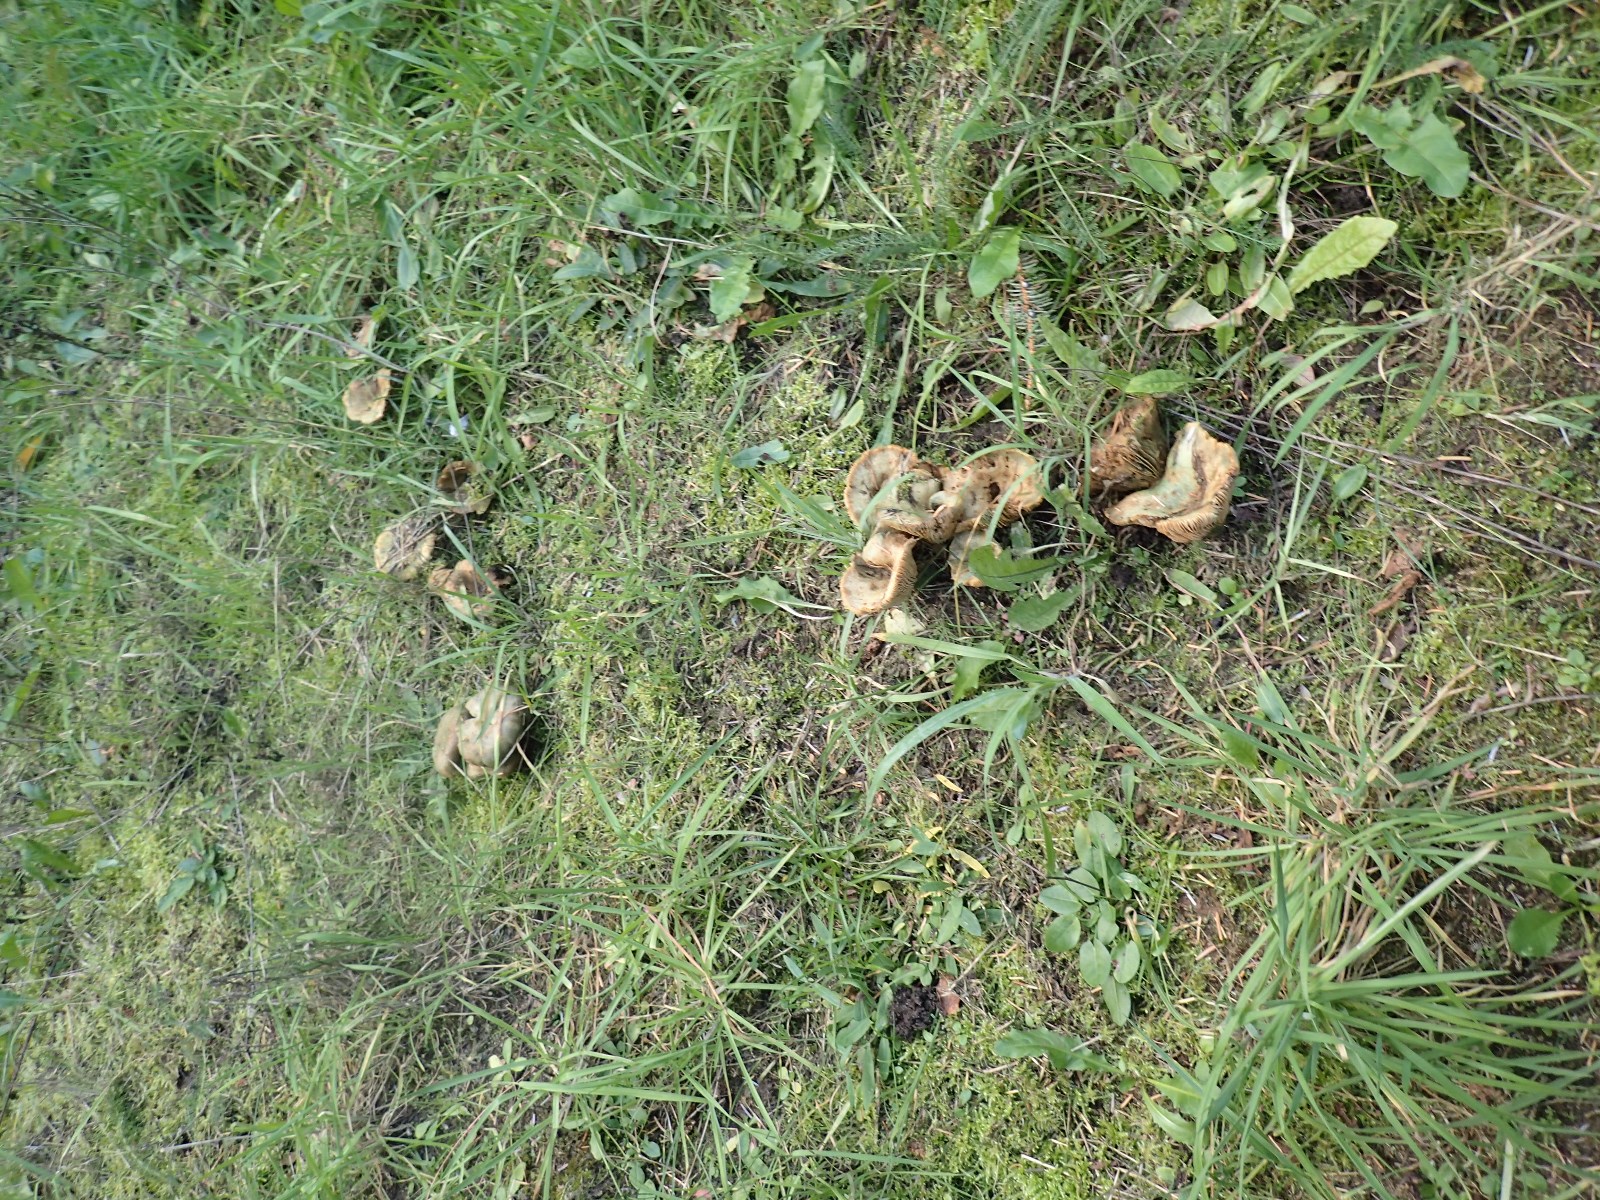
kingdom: Fungi
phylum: Basidiomycota
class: Agaricomycetes
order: Russulales
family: Russulaceae
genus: Lactarius
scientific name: Lactarius deterrimus
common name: gran-mælkehat
